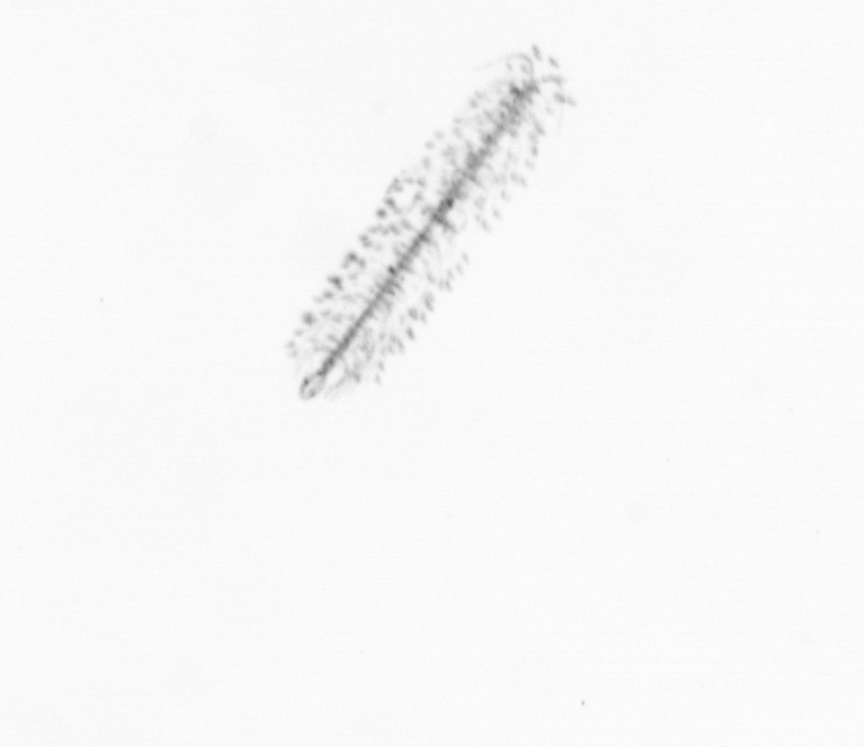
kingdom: Chromista
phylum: Ochrophyta
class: Bacillariophyceae
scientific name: Bacillariophyceae
